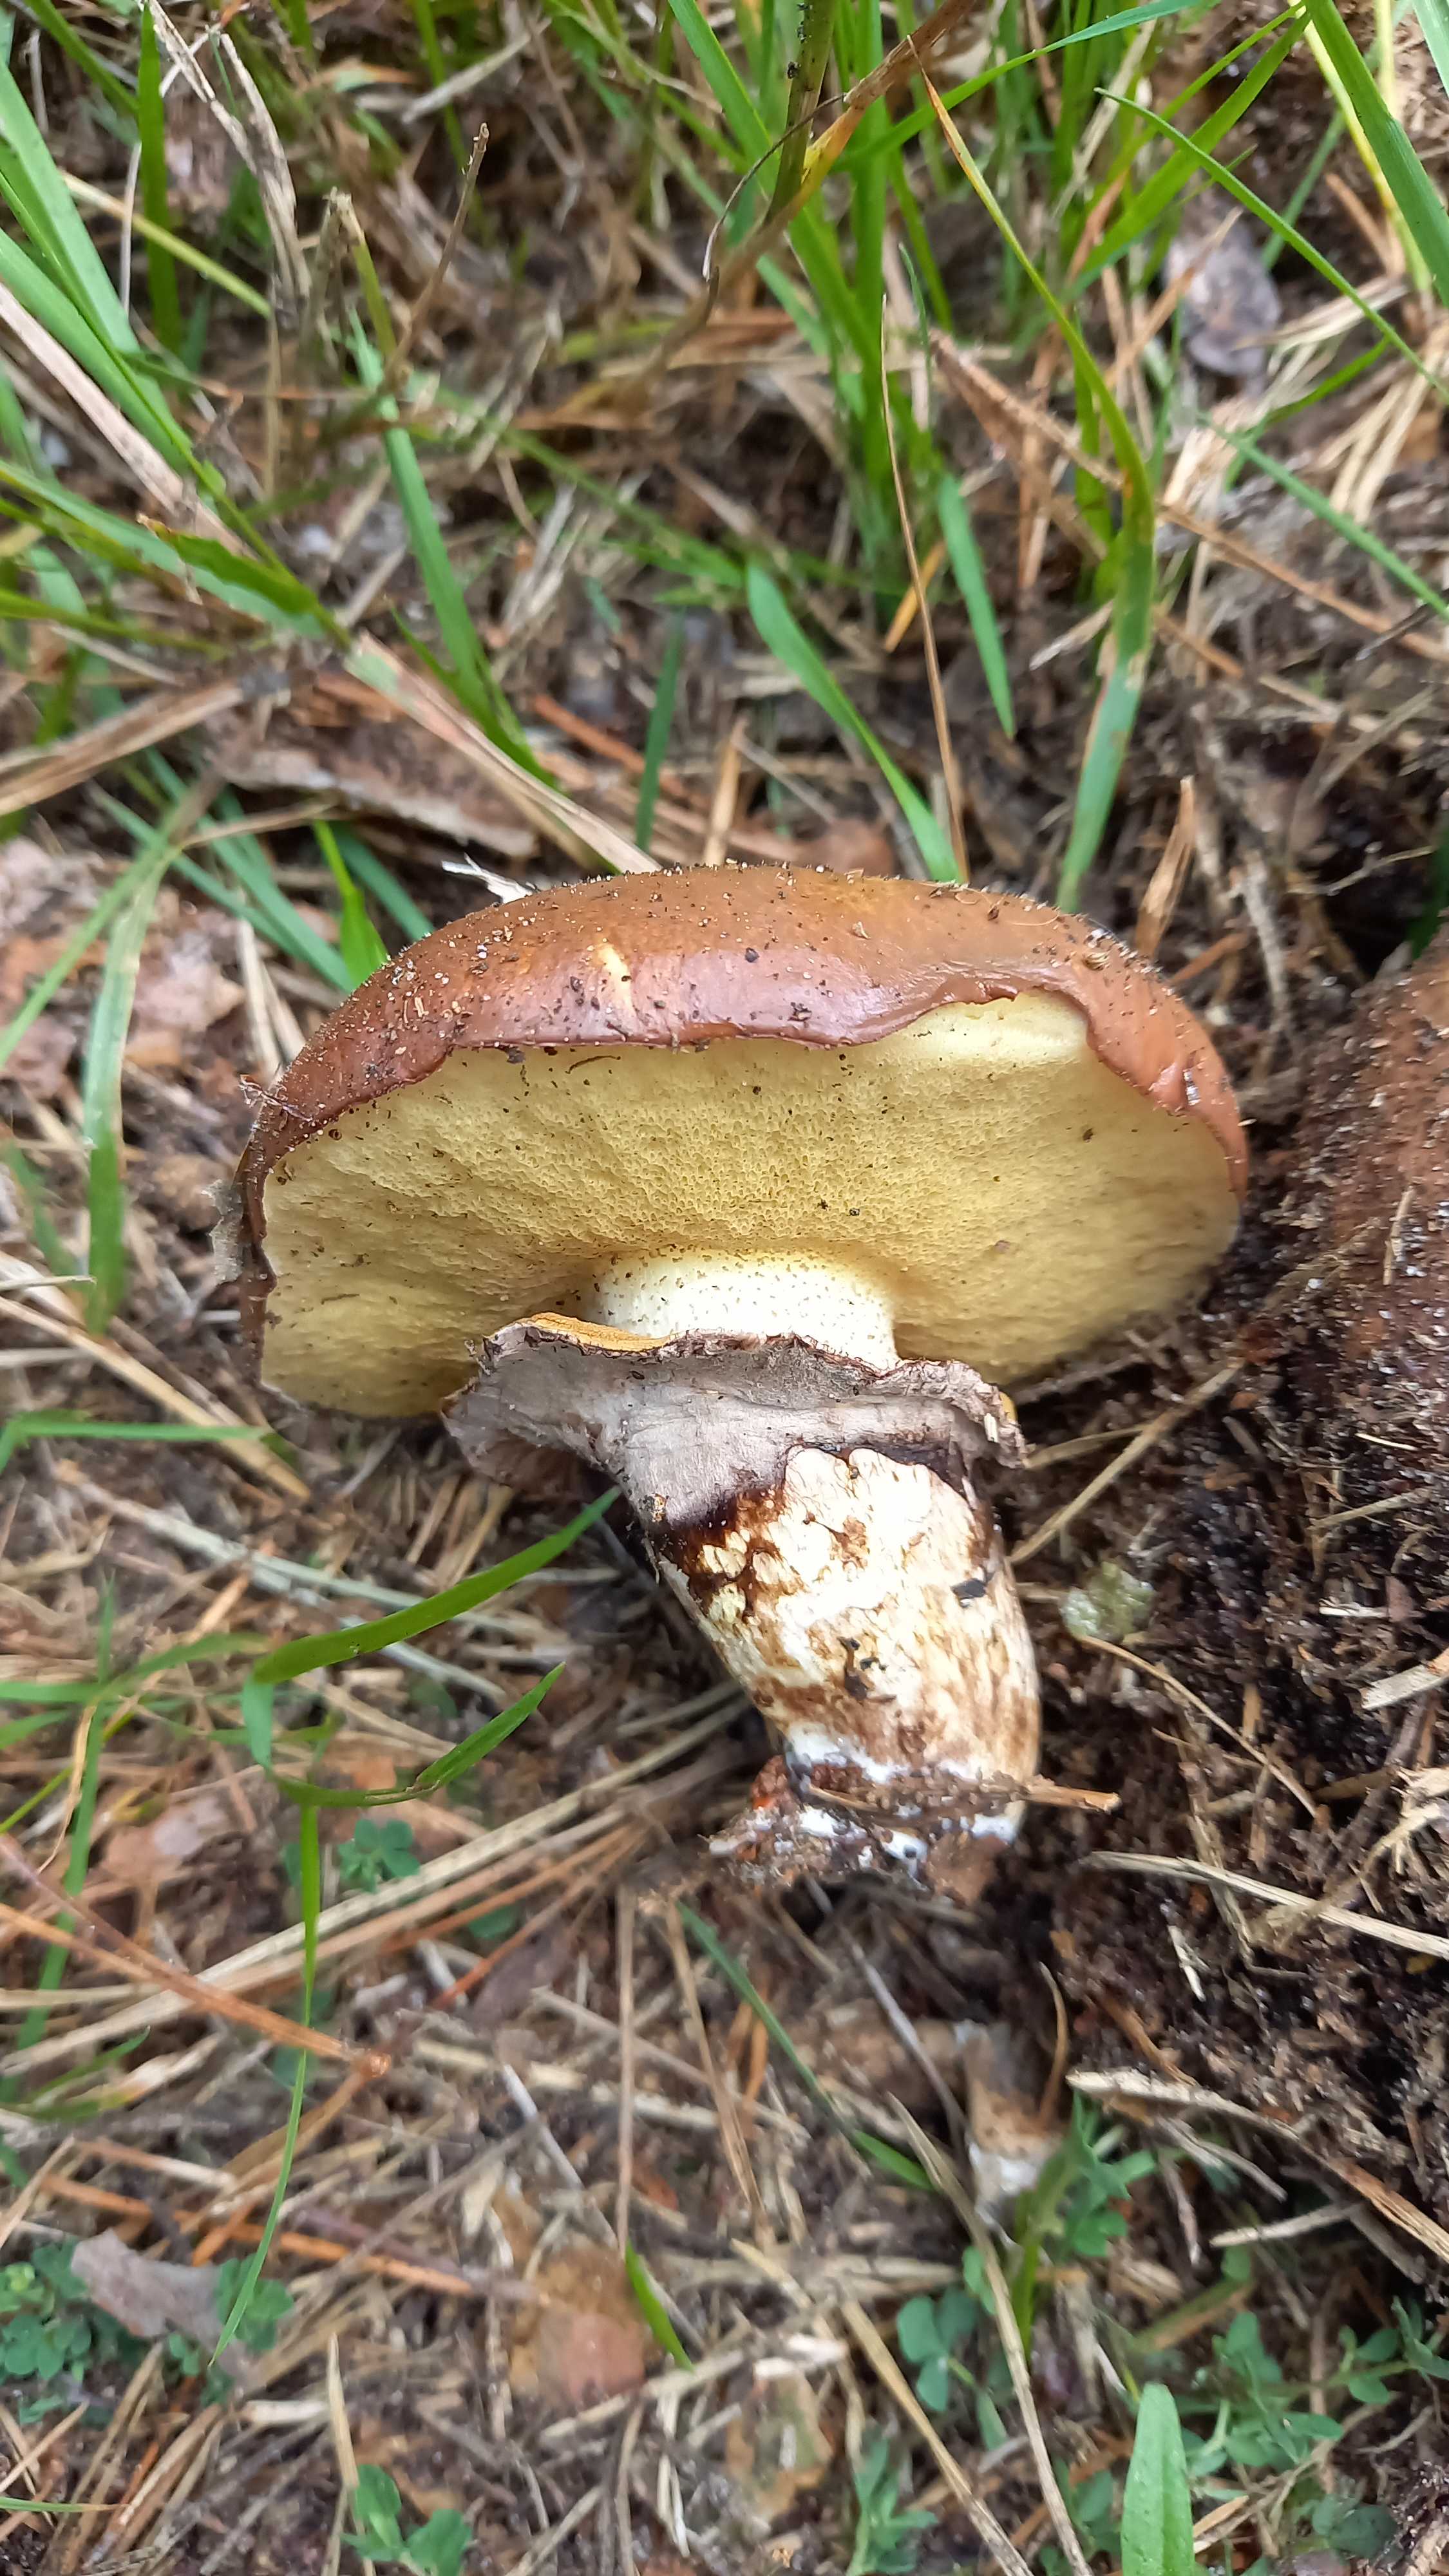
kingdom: Fungi
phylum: Basidiomycota
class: Agaricomycetes
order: Boletales
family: Suillaceae
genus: Suillus
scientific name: Suillus luteus
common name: brungul slimrørhat
